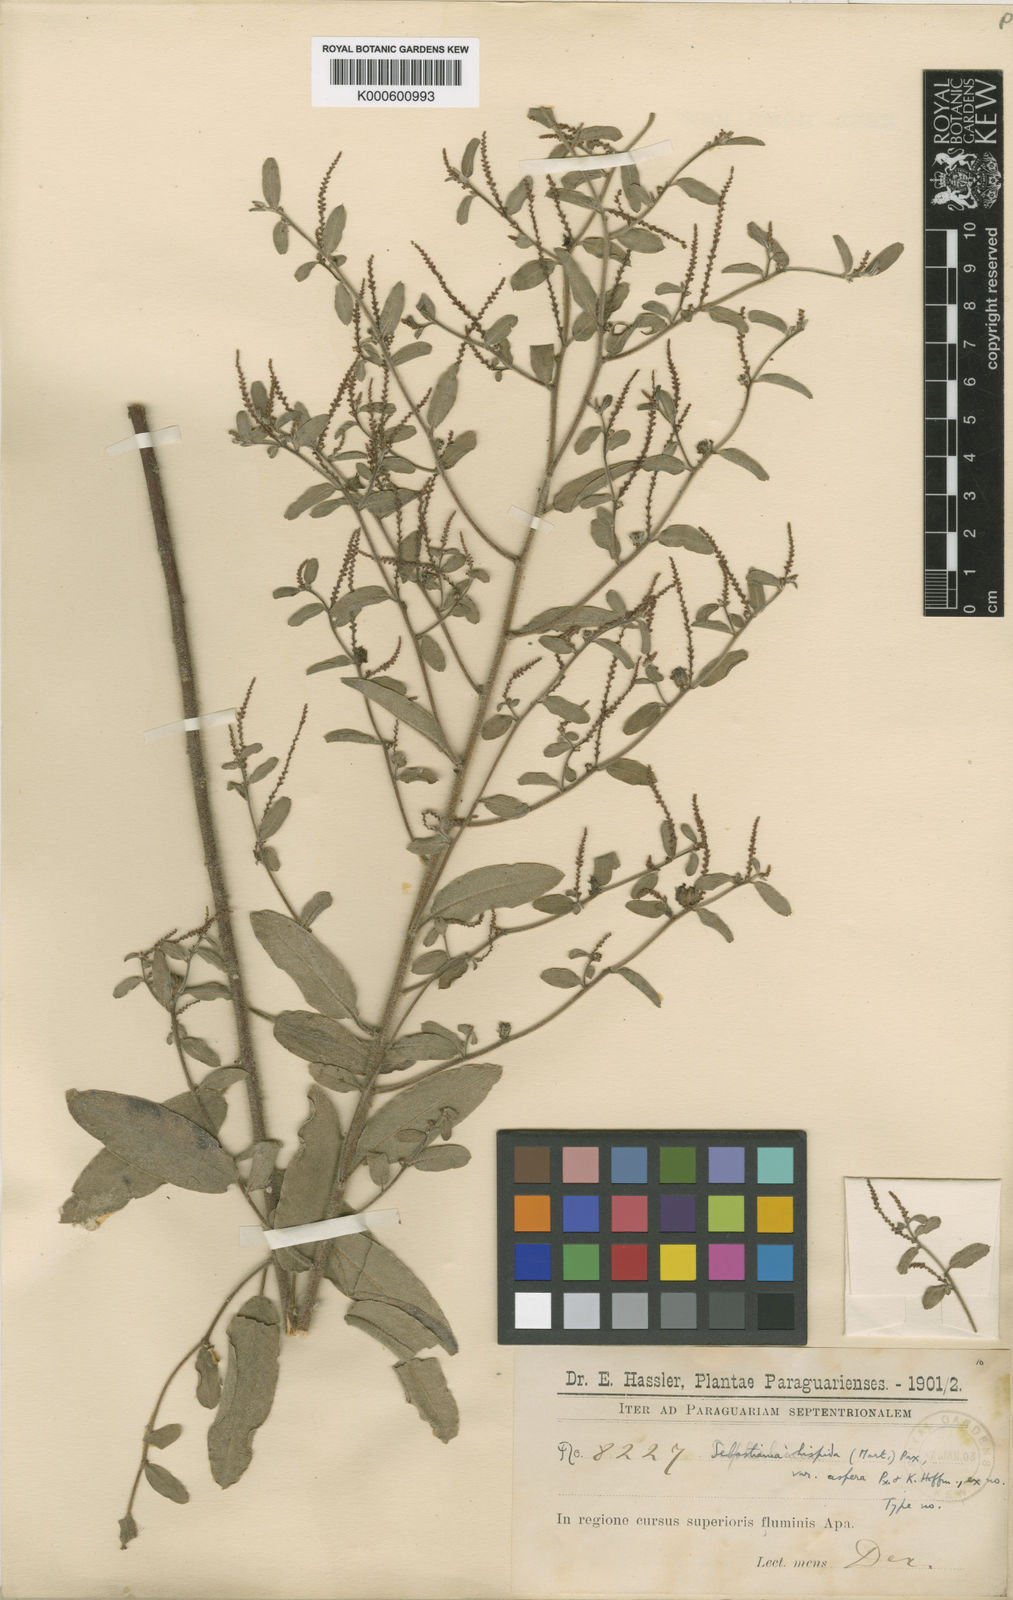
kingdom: Plantae
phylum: Tracheophyta
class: Magnoliopsida
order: Malpighiales
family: Euphorbiaceae
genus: Microstachys
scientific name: Microstachys hispida
